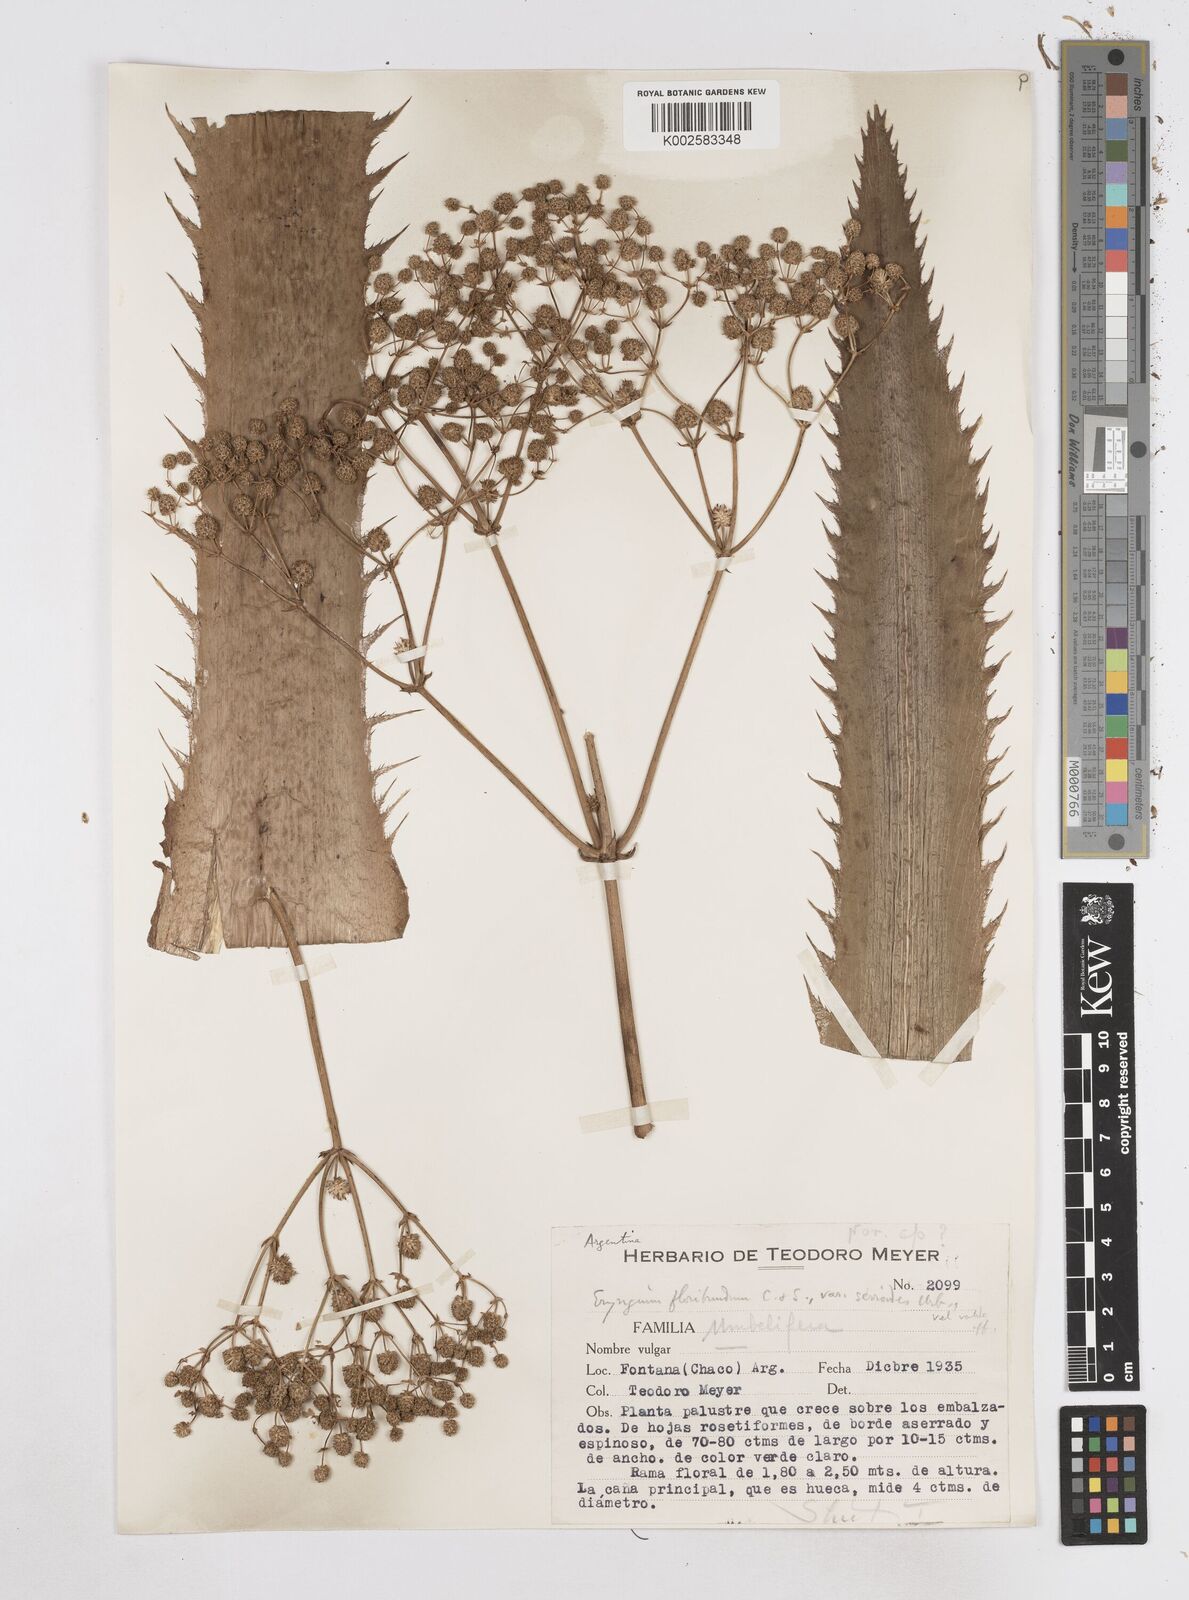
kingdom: Plantae
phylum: Tracheophyta
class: Magnoliopsida
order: Apiales
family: Apiaceae
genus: Eryngium
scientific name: Eryngium floribundum
